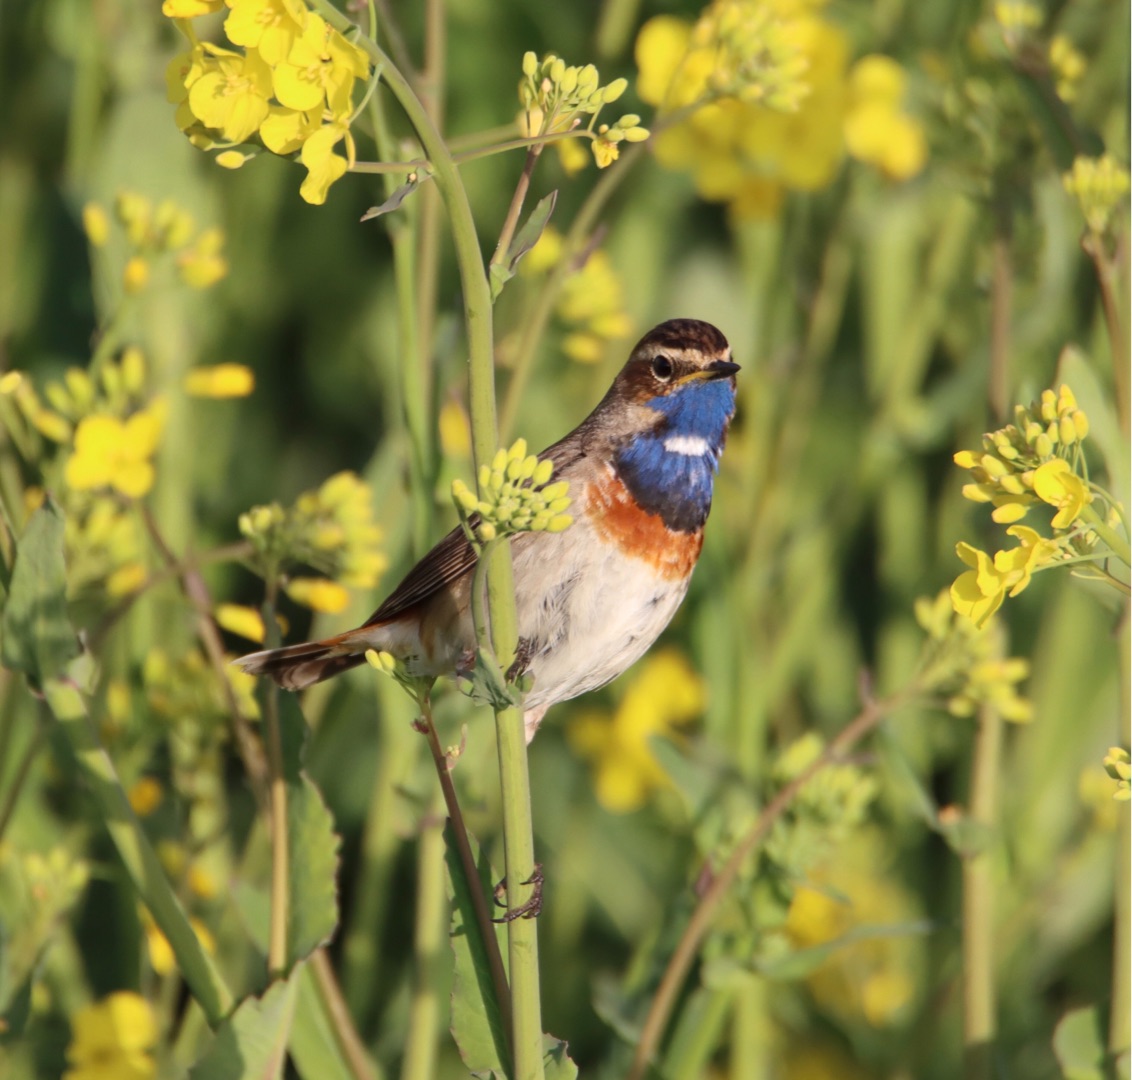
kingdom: Animalia
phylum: Chordata
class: Aves
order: Passeriformes
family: Muscicapidae
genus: Luscinia
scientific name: Luscinia svecica
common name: Blåhals
